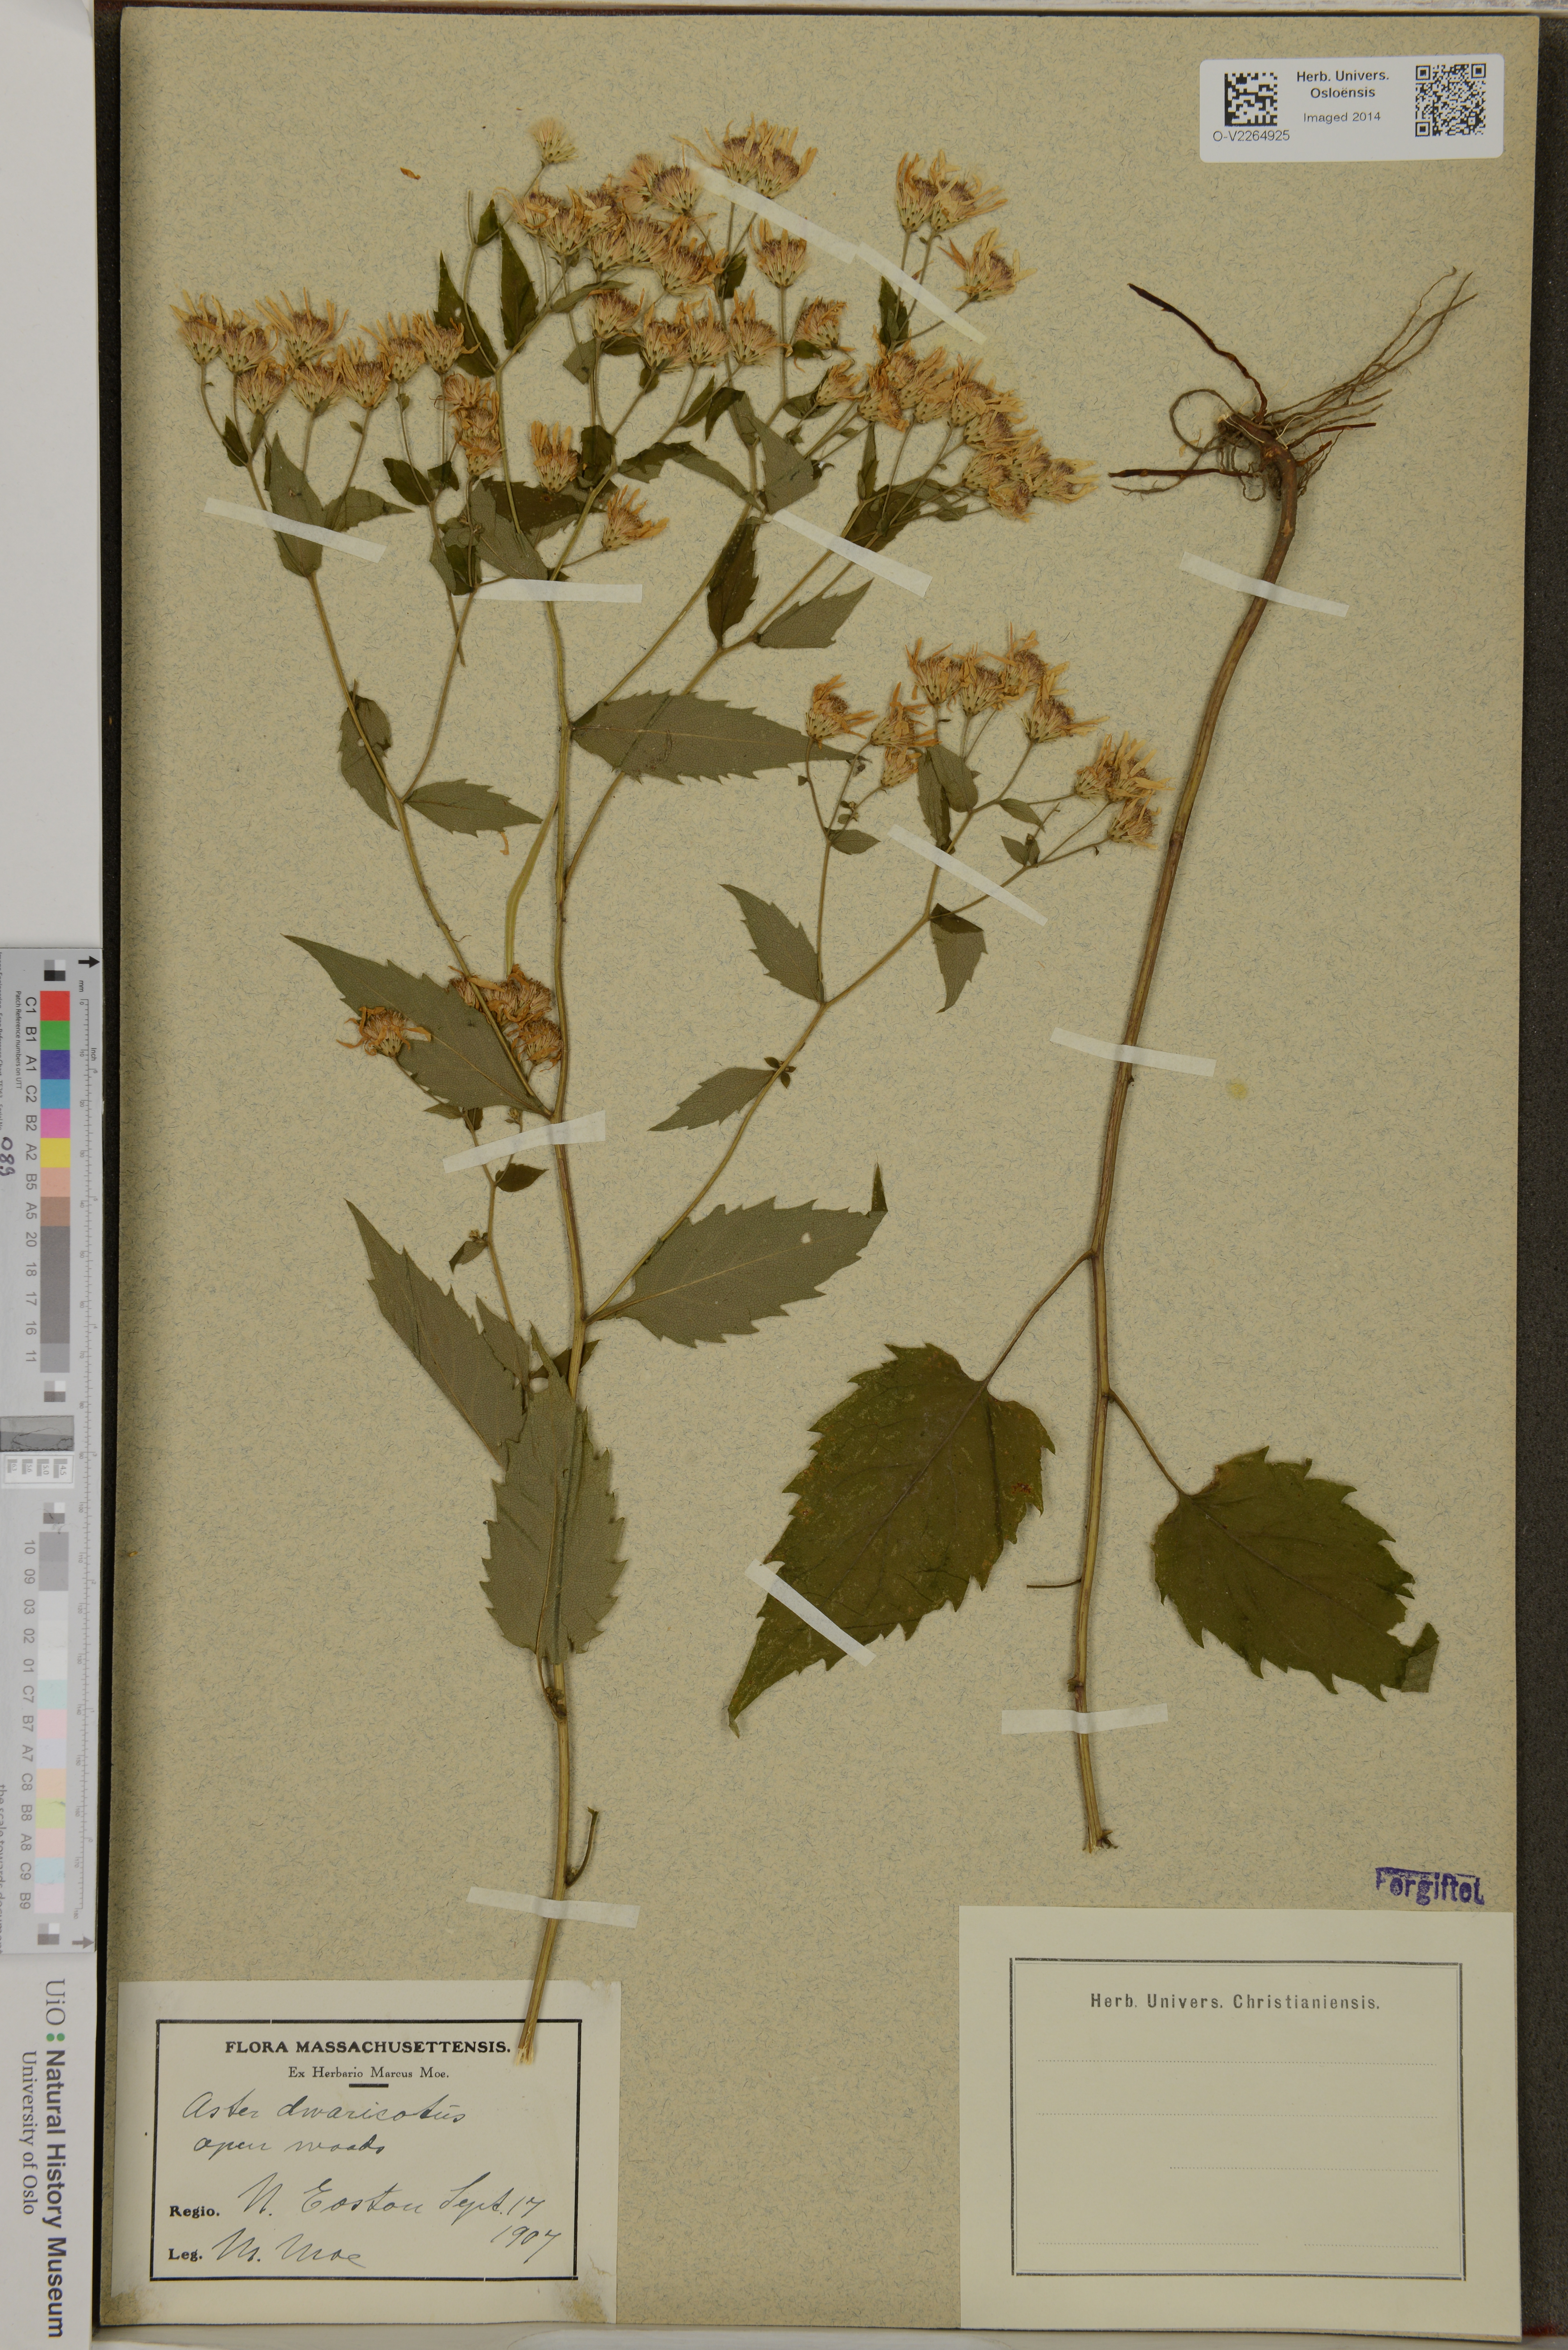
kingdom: Plantae
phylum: Tracheophyta
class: Magnoliopsida
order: Asterales
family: Asteraceae
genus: Aster
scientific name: Aster divaricatus
